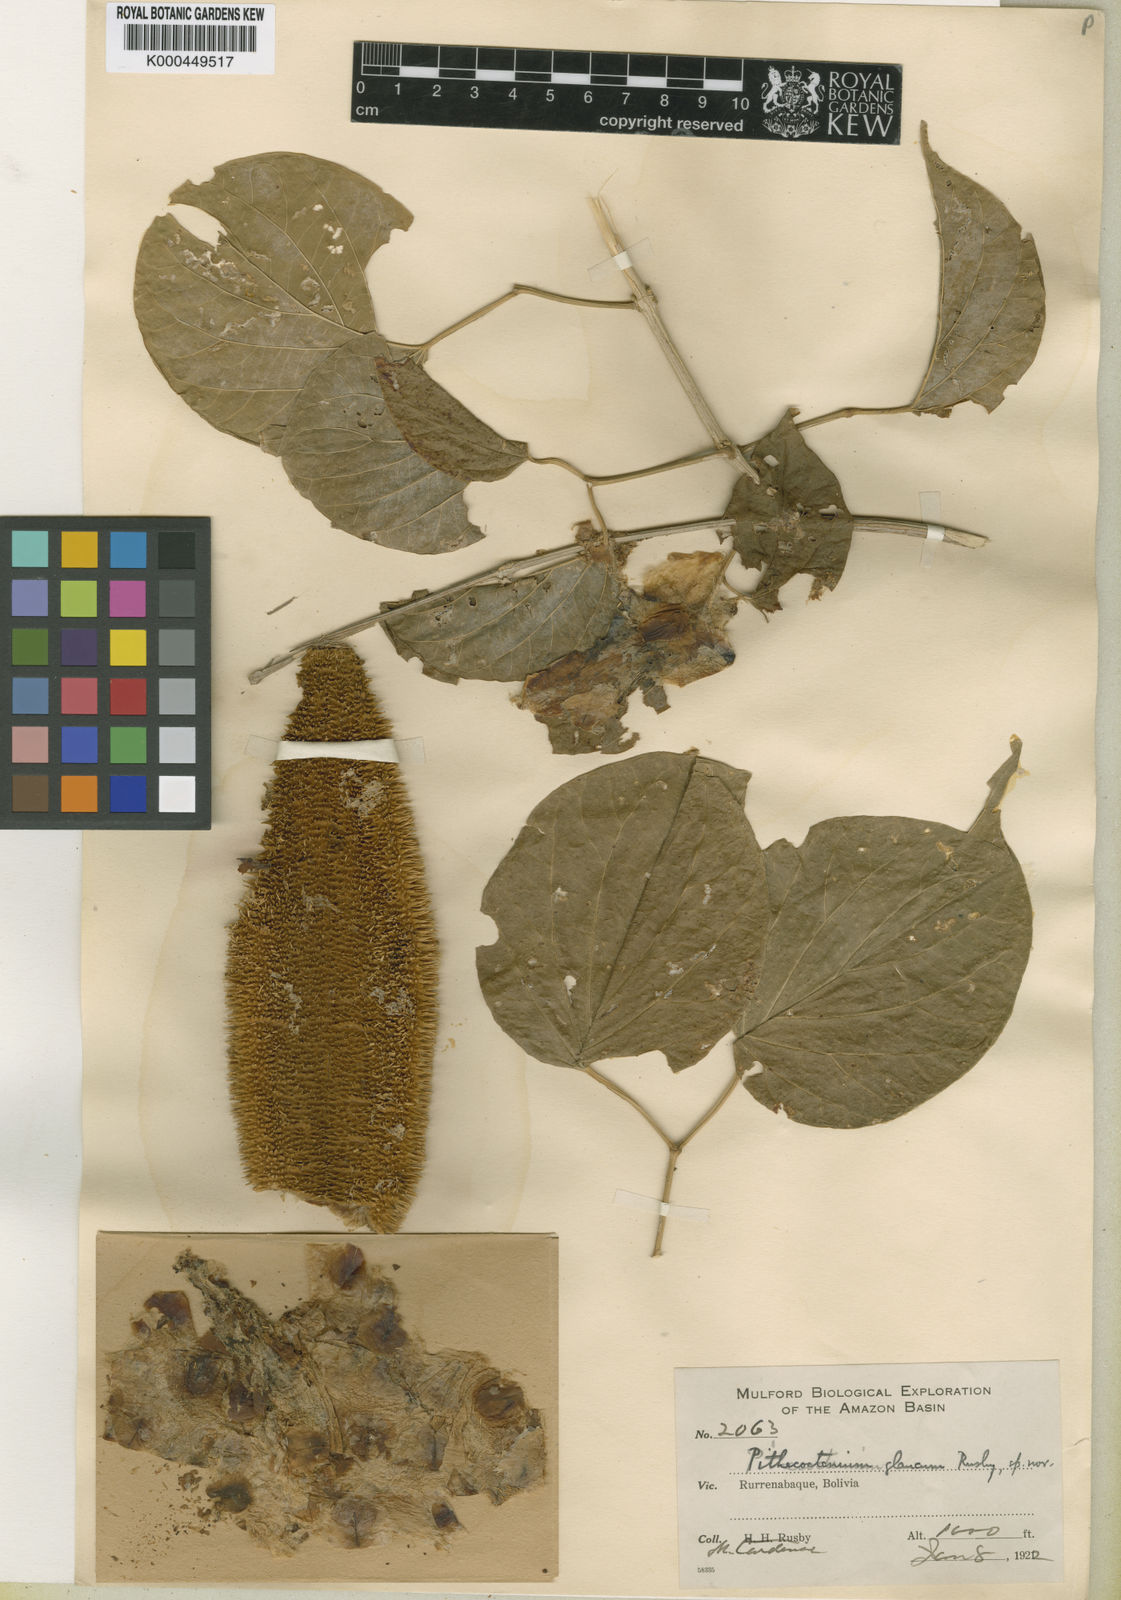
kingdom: Plantae
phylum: Tracheophyta
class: Magnoliopsida
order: Lamiales
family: Bignoniaceae
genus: Amphilophium
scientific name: Amphilophium crucigerum
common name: Monkey comb
